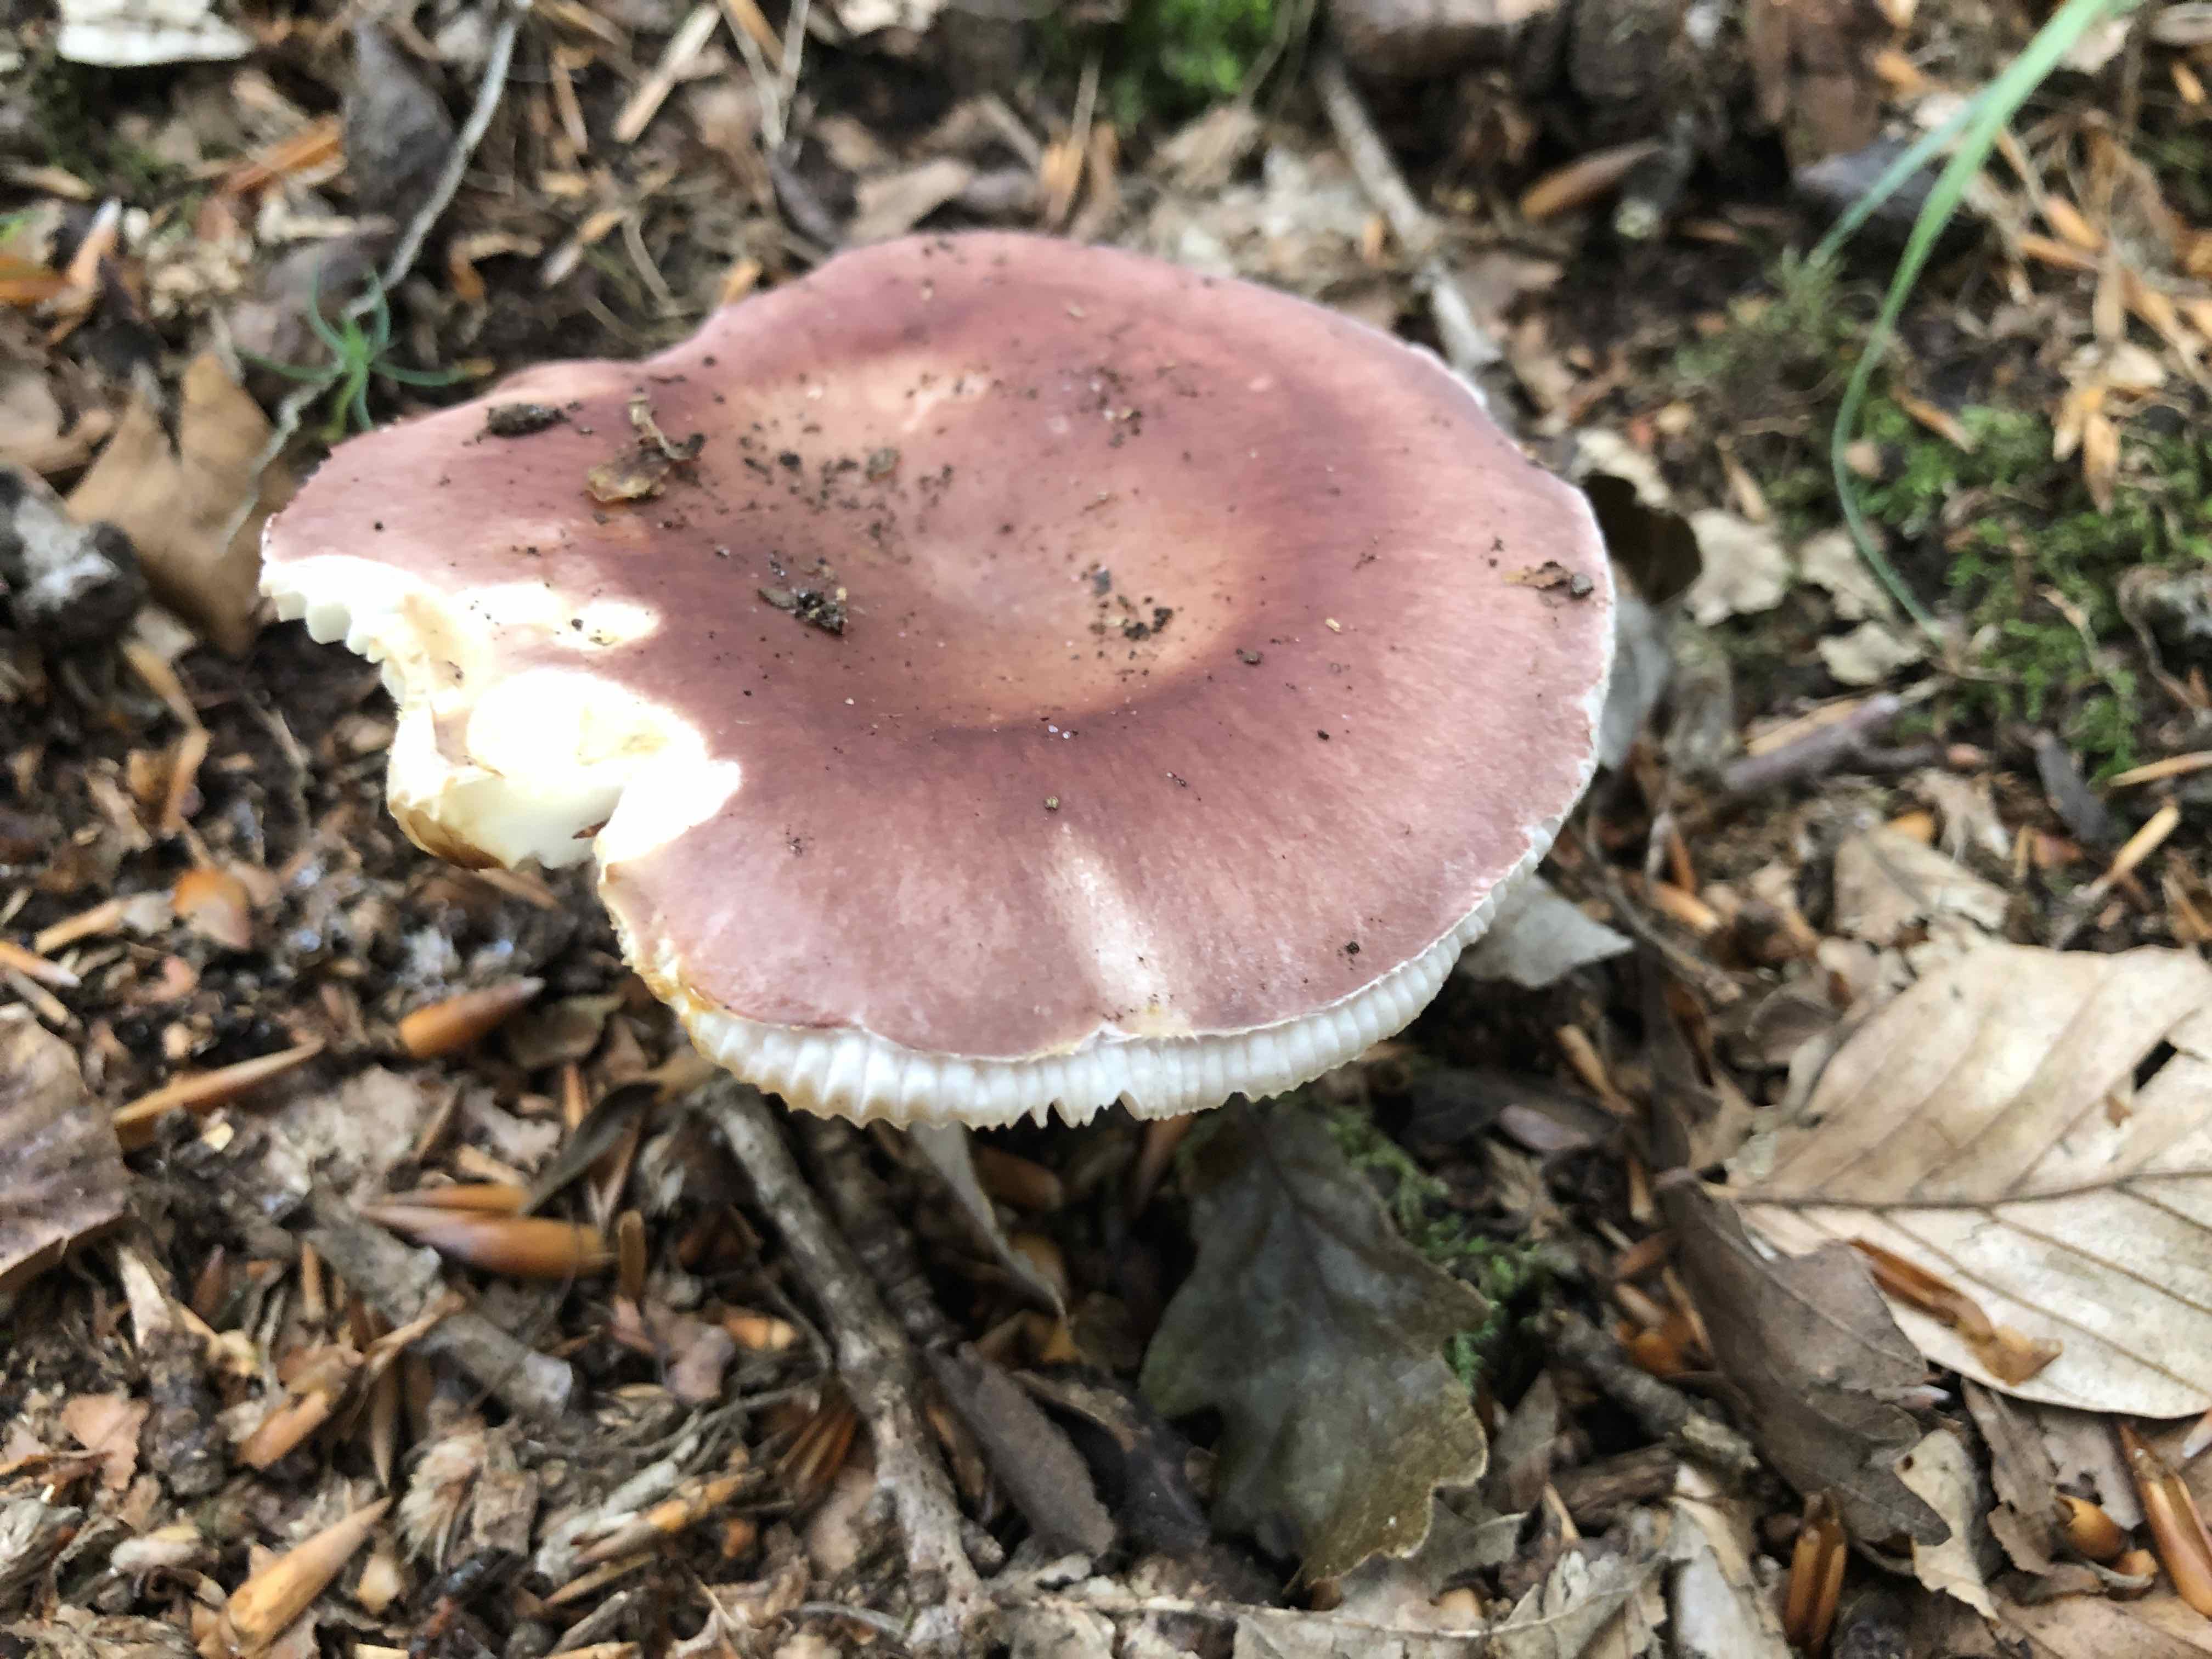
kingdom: Fungi
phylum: Basidiomycota
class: Agaricomycetes
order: Russulales
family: Russulaceae
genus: Russula
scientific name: Russula vesca
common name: spiselig skørhat
